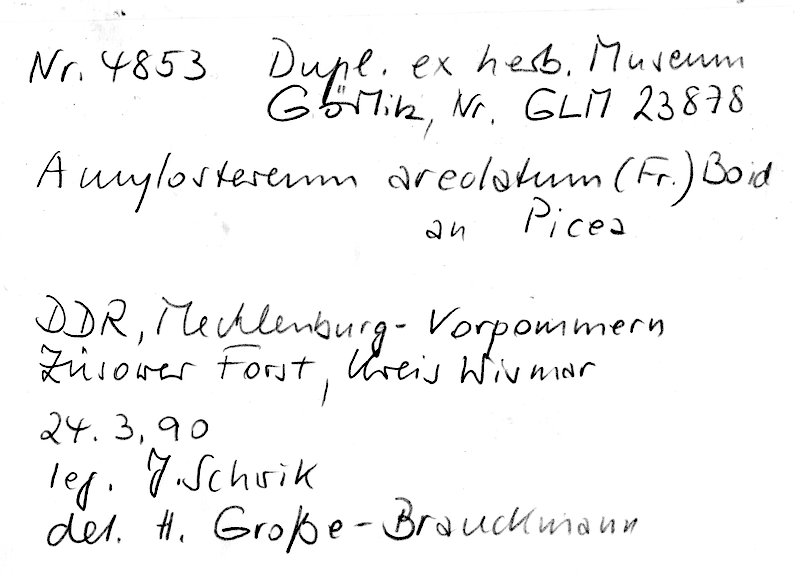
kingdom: Fungi
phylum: Basidiomycota
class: Agaricomycetes
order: Russulales
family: Echinodontiaceae
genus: Amylostereum
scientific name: Amylostereum areolatum
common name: White rot fungus
